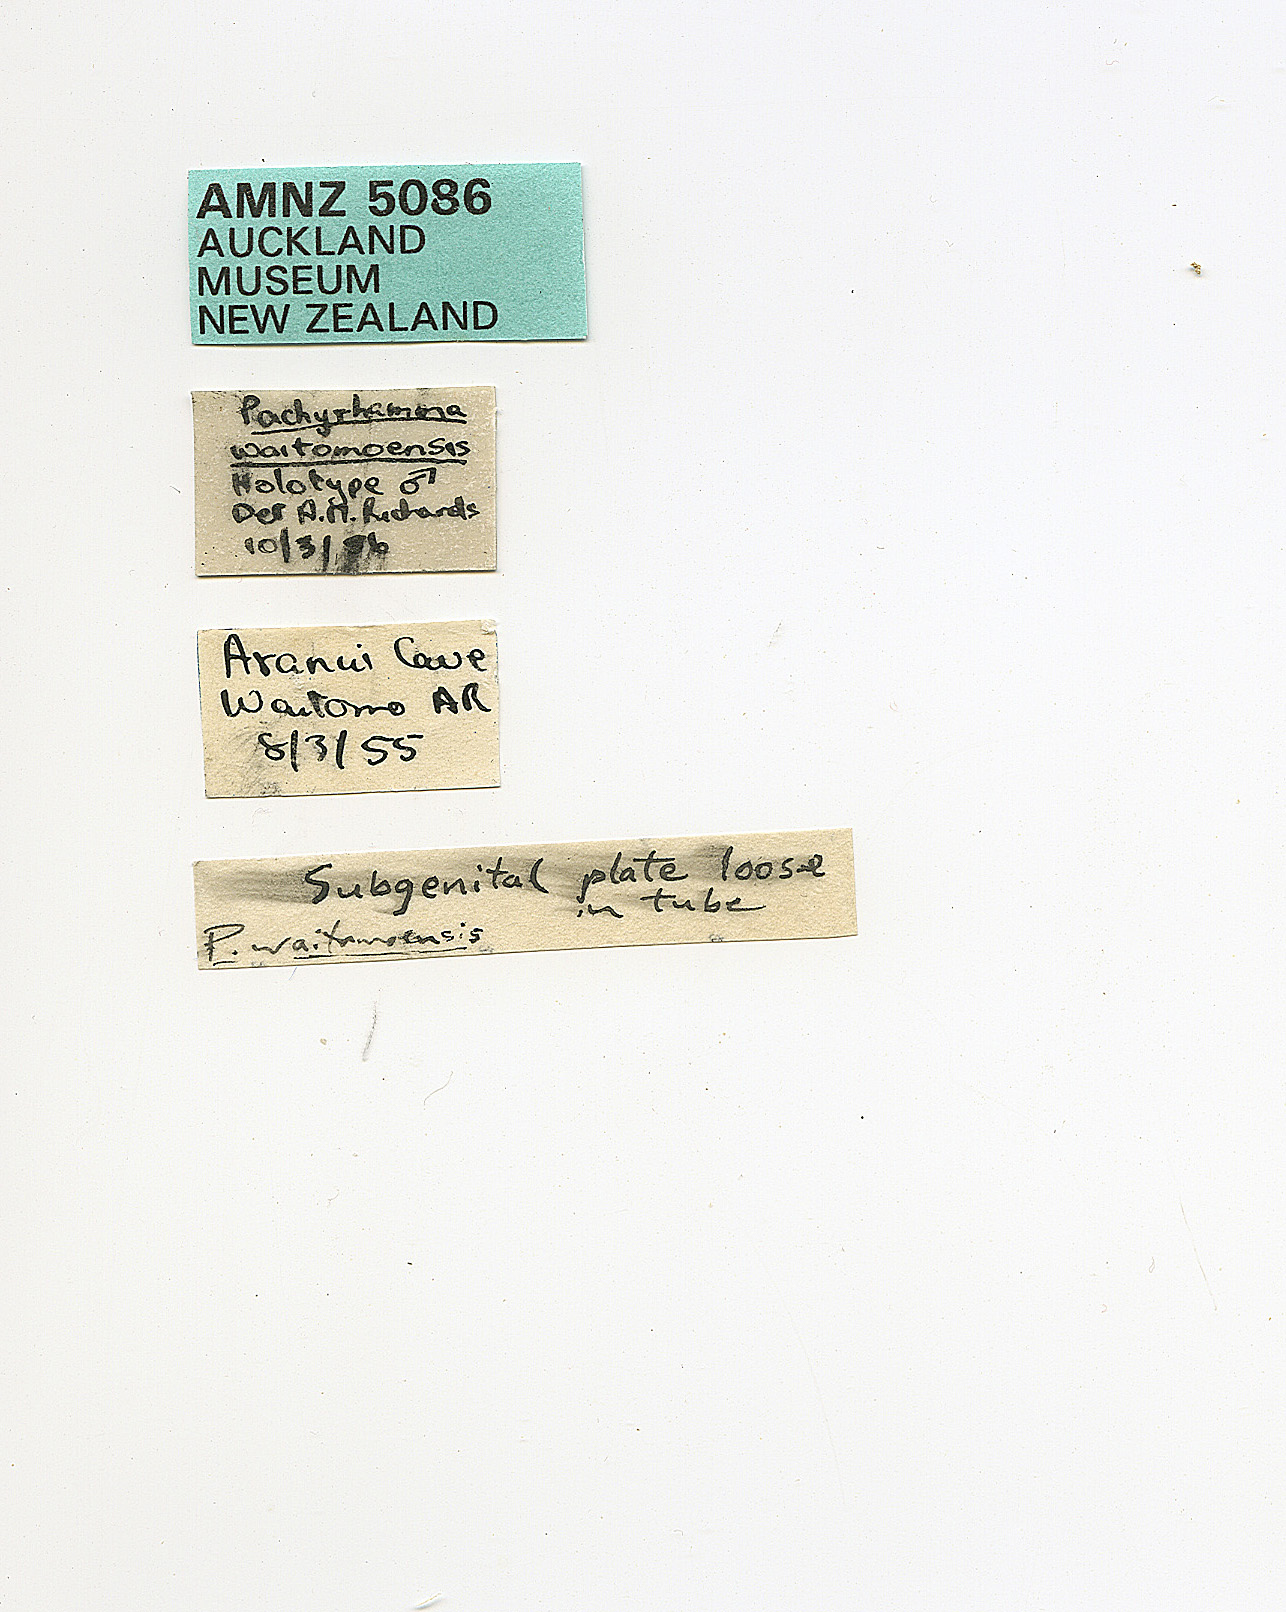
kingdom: Animalia
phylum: Arthropoda
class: Insecta
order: Orthoptera
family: Rhaphidophoridae
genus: Pachyrhamma
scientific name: Pachyrhamma waitomoensis
